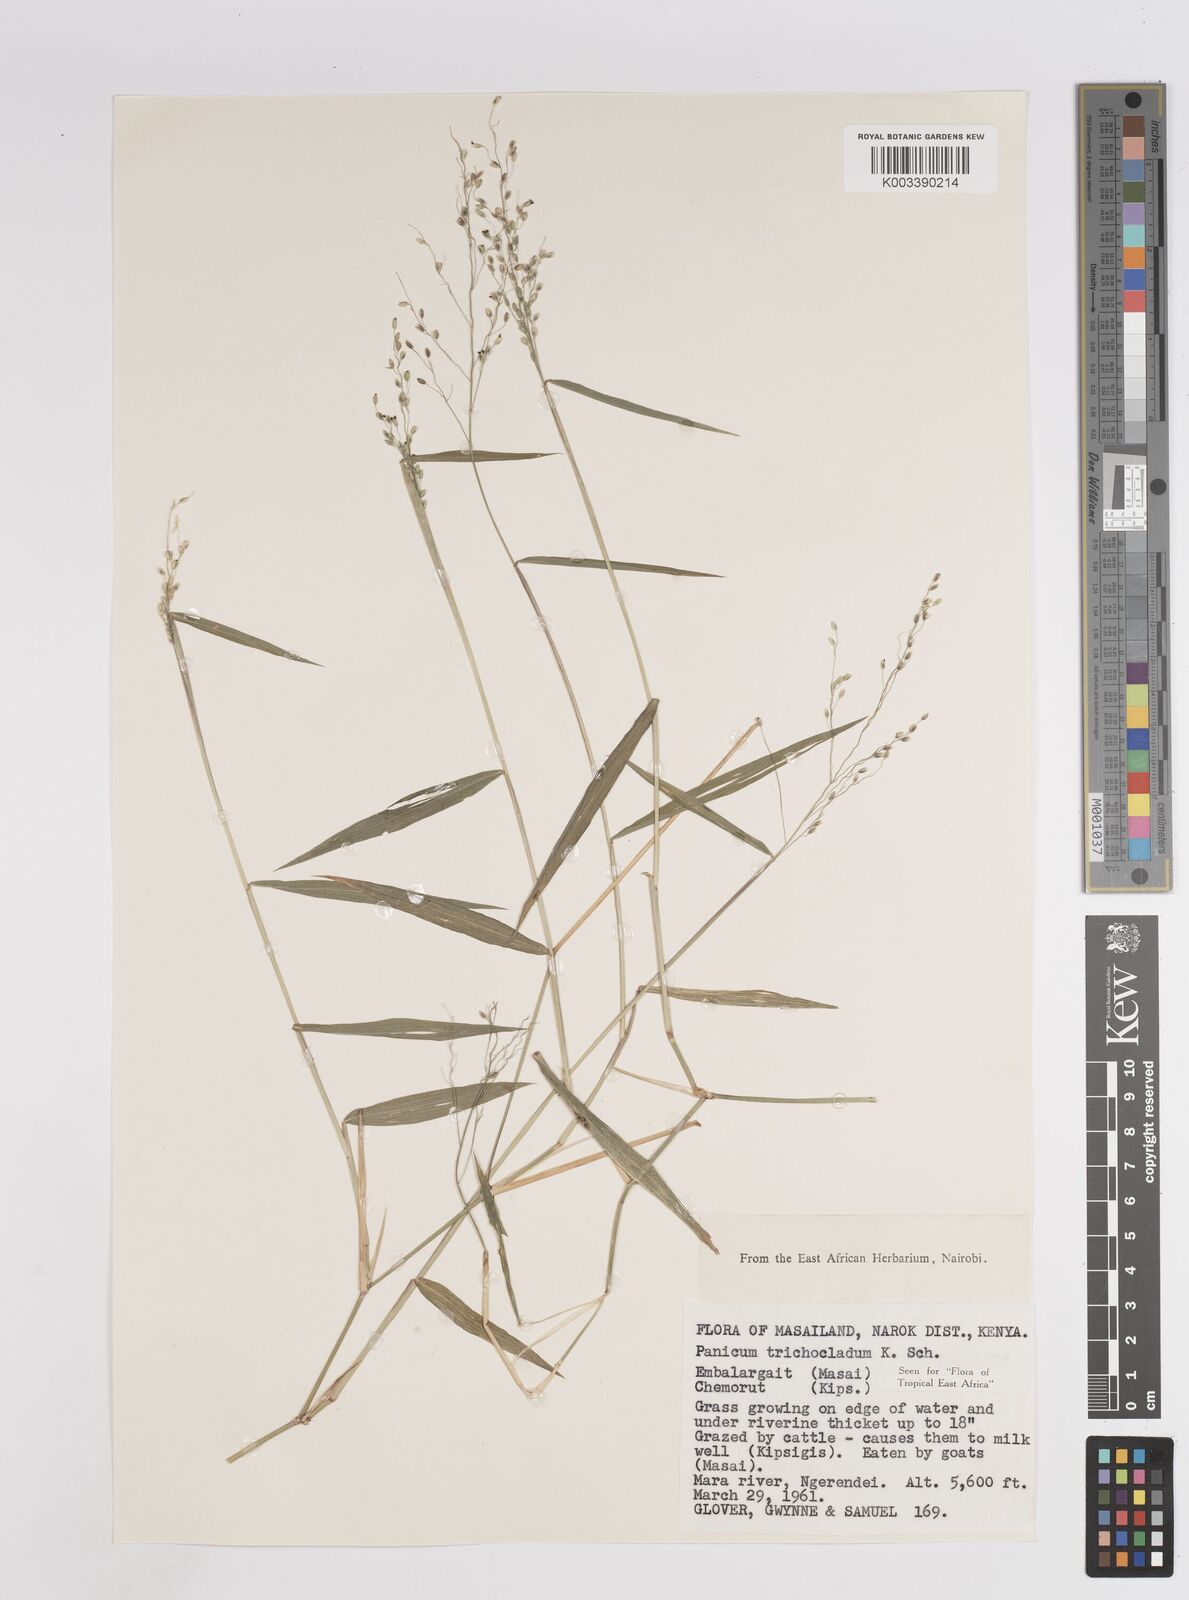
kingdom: Plantae
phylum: Tracheophyta
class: Liliopsida
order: Poales
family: Poaceae
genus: Panicum
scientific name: Panicum trichocladum
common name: Donkey grass
